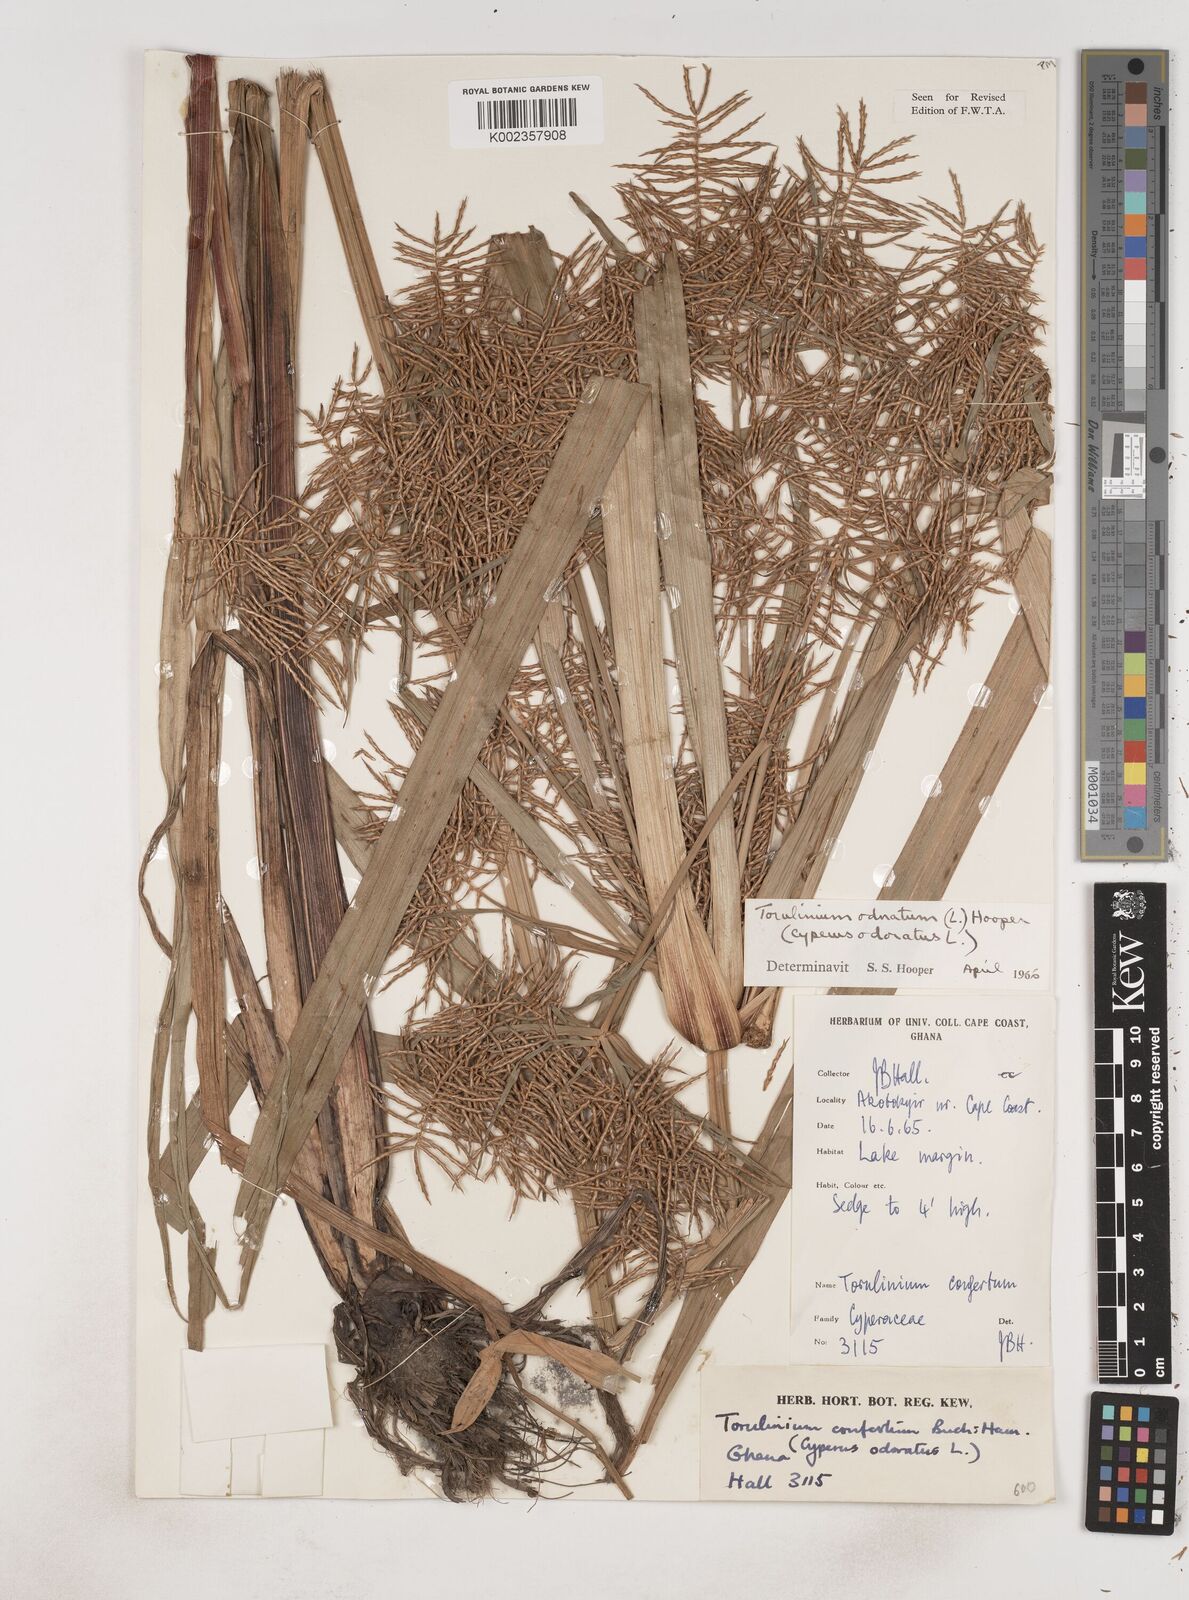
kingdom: Plantae
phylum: Tracheophyta
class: Liliopsida
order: Poales
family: Cyperaceae
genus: Cyperus
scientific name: Cyperus odoratus
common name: Fragrant flatsedge
